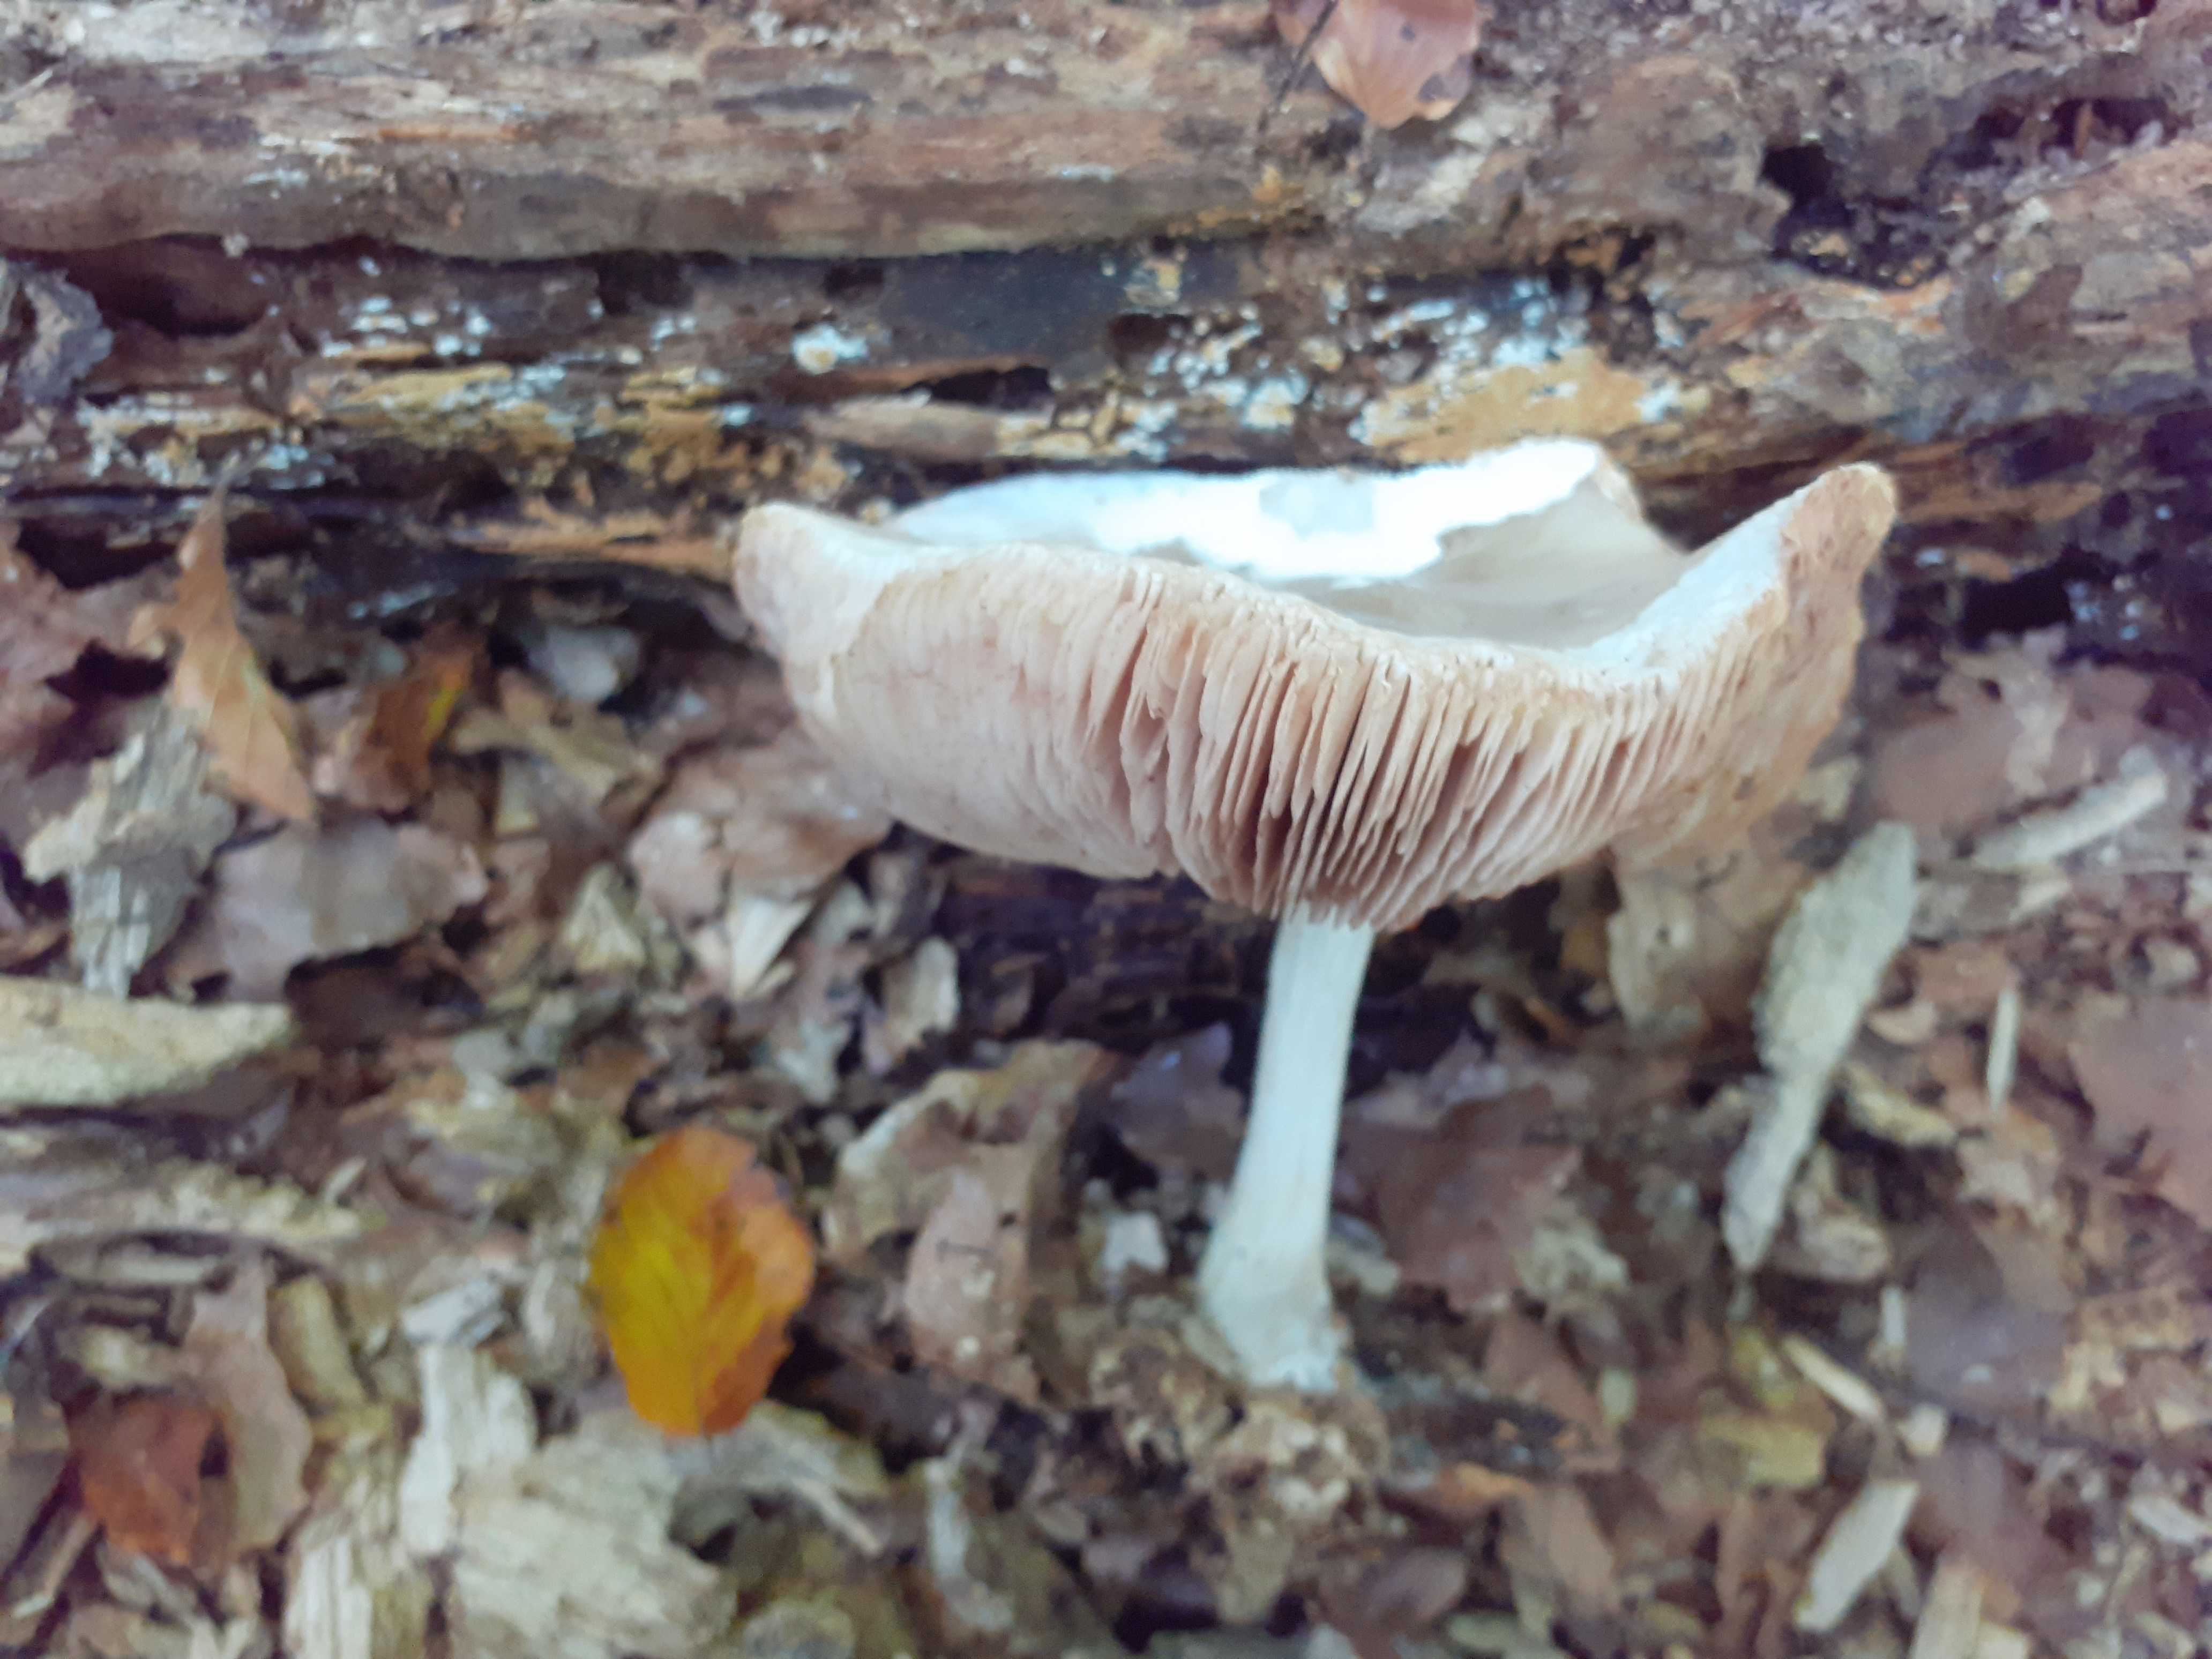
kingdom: Fungi
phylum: Basidiomycota
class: Agaricomycetes
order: Agaricales
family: Pluteaceae
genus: Pluteus
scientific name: Pluteus cervinus
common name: sodfarvet skærmhat
